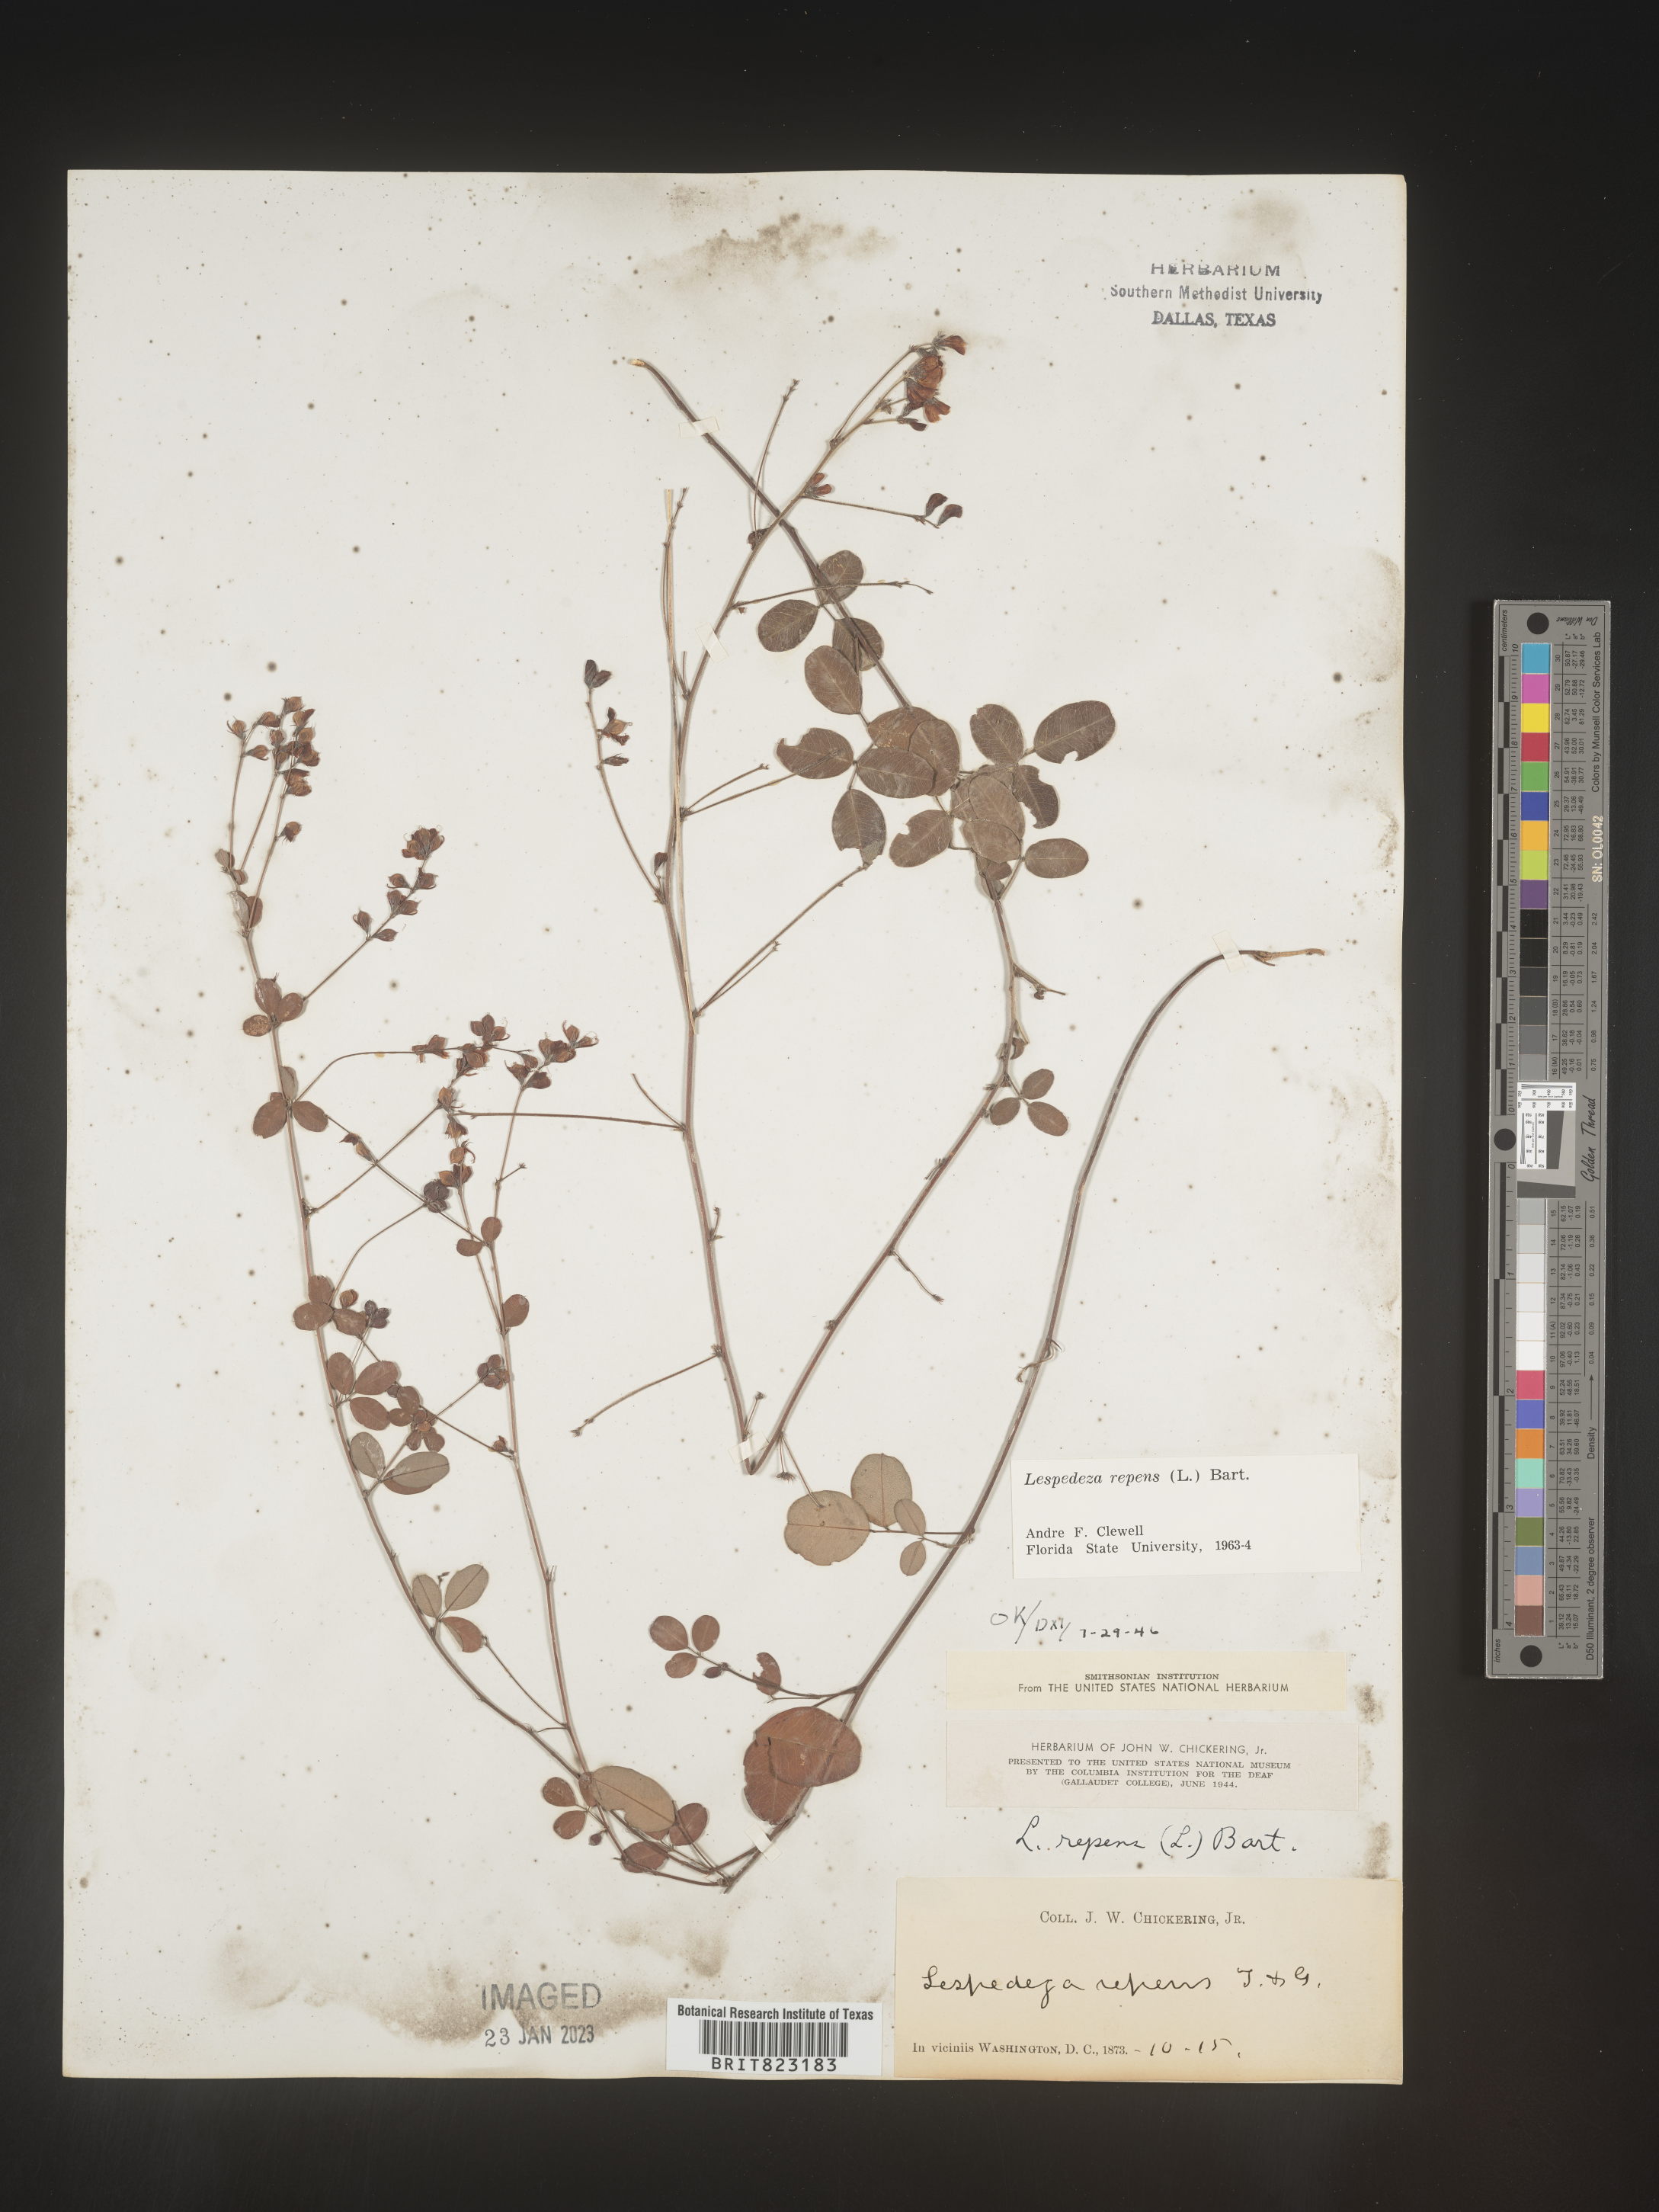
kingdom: Plantae
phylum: Tracheophyta
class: Magnoliopsida
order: Fabales
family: Fabaceae
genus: Lespedeza
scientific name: Lespedeza repens
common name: Creeping bush-clover
